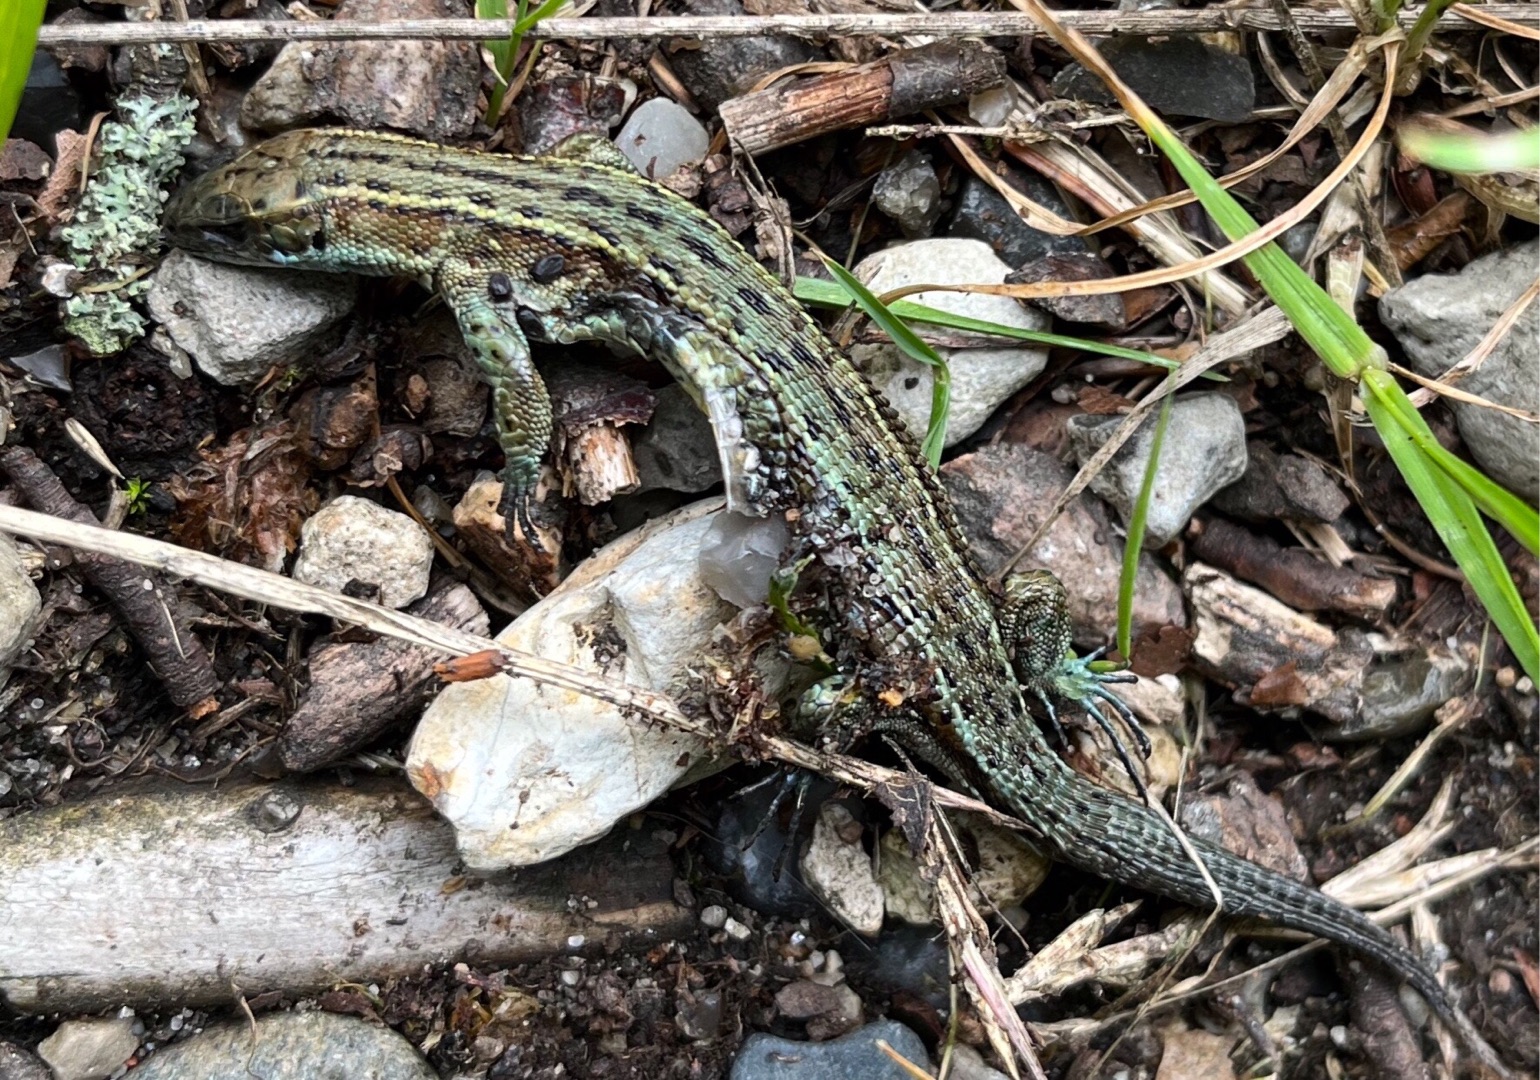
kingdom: Animalia
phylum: Chordata
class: Squamata
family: Lacertidae
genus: Zootoca
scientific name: Zootoca vivipara
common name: Skovfirben
